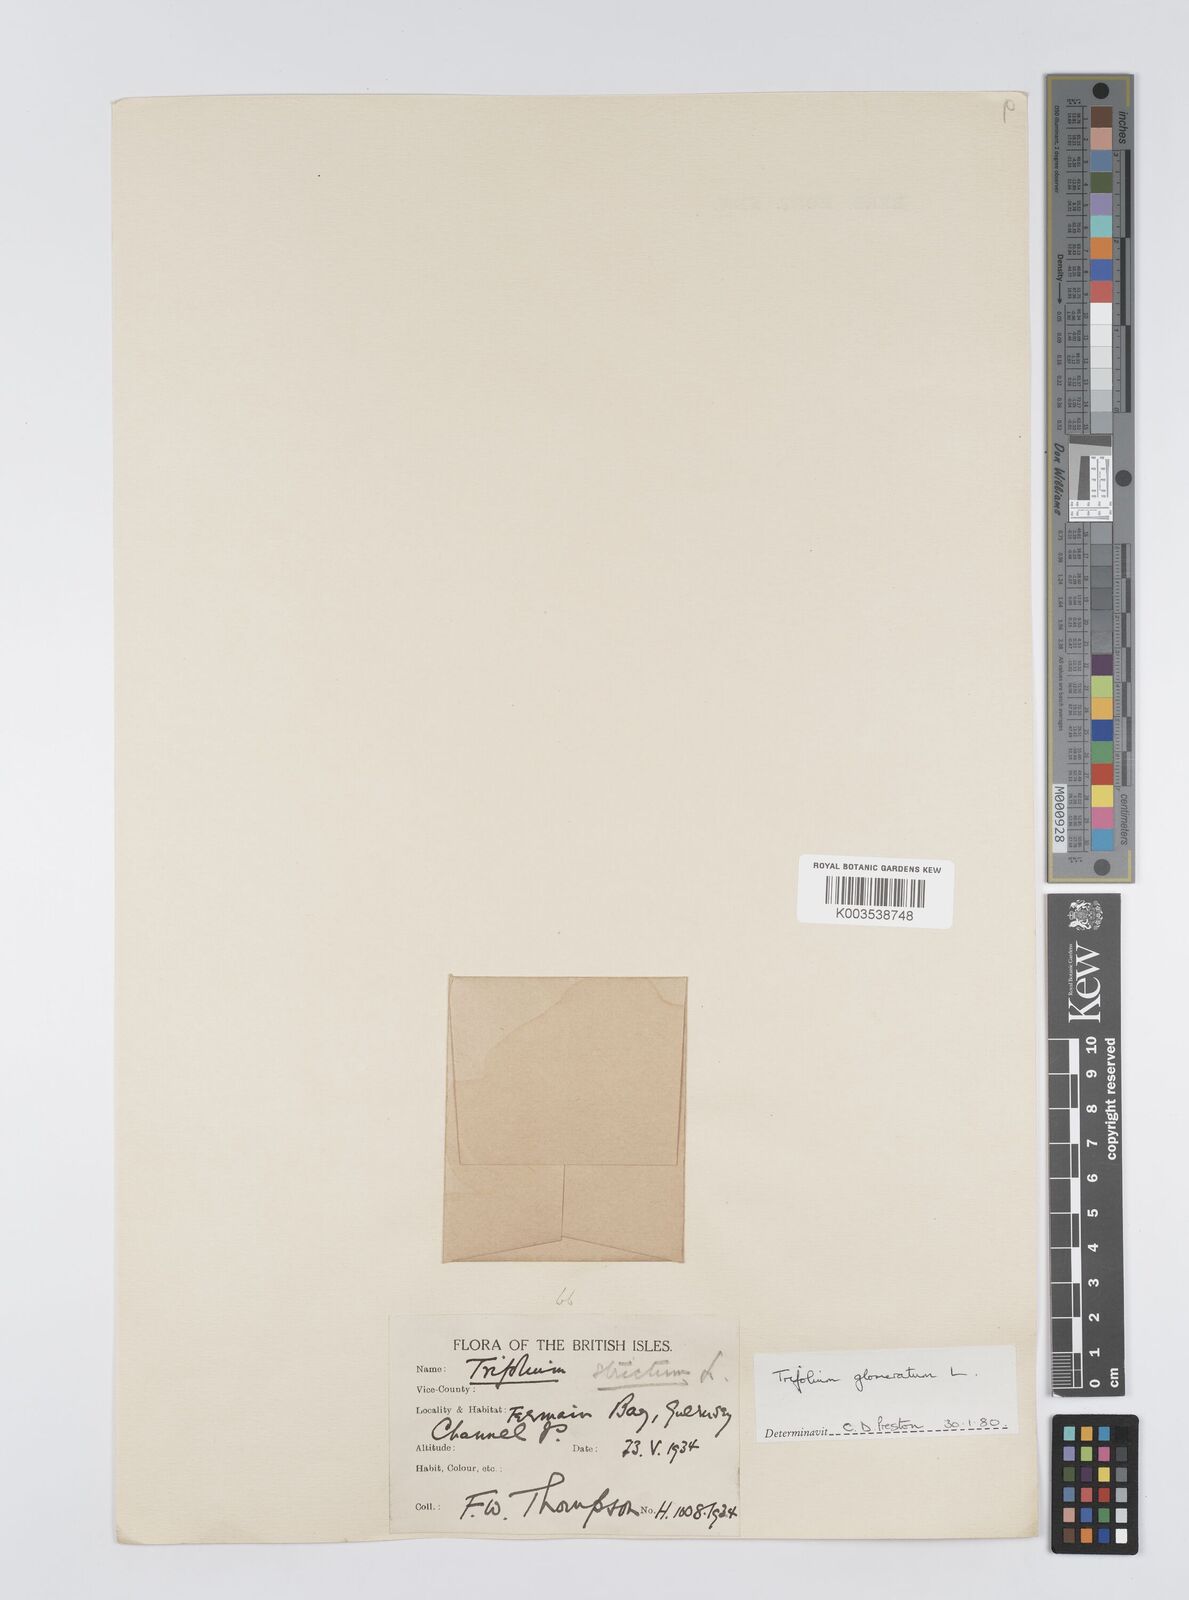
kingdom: Plantae
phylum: Tracheophyta
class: Magnoliopsida
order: Fabales
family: Fabaceae
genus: Trifolium
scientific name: Trifolium glomeratum
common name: Clustered clover
